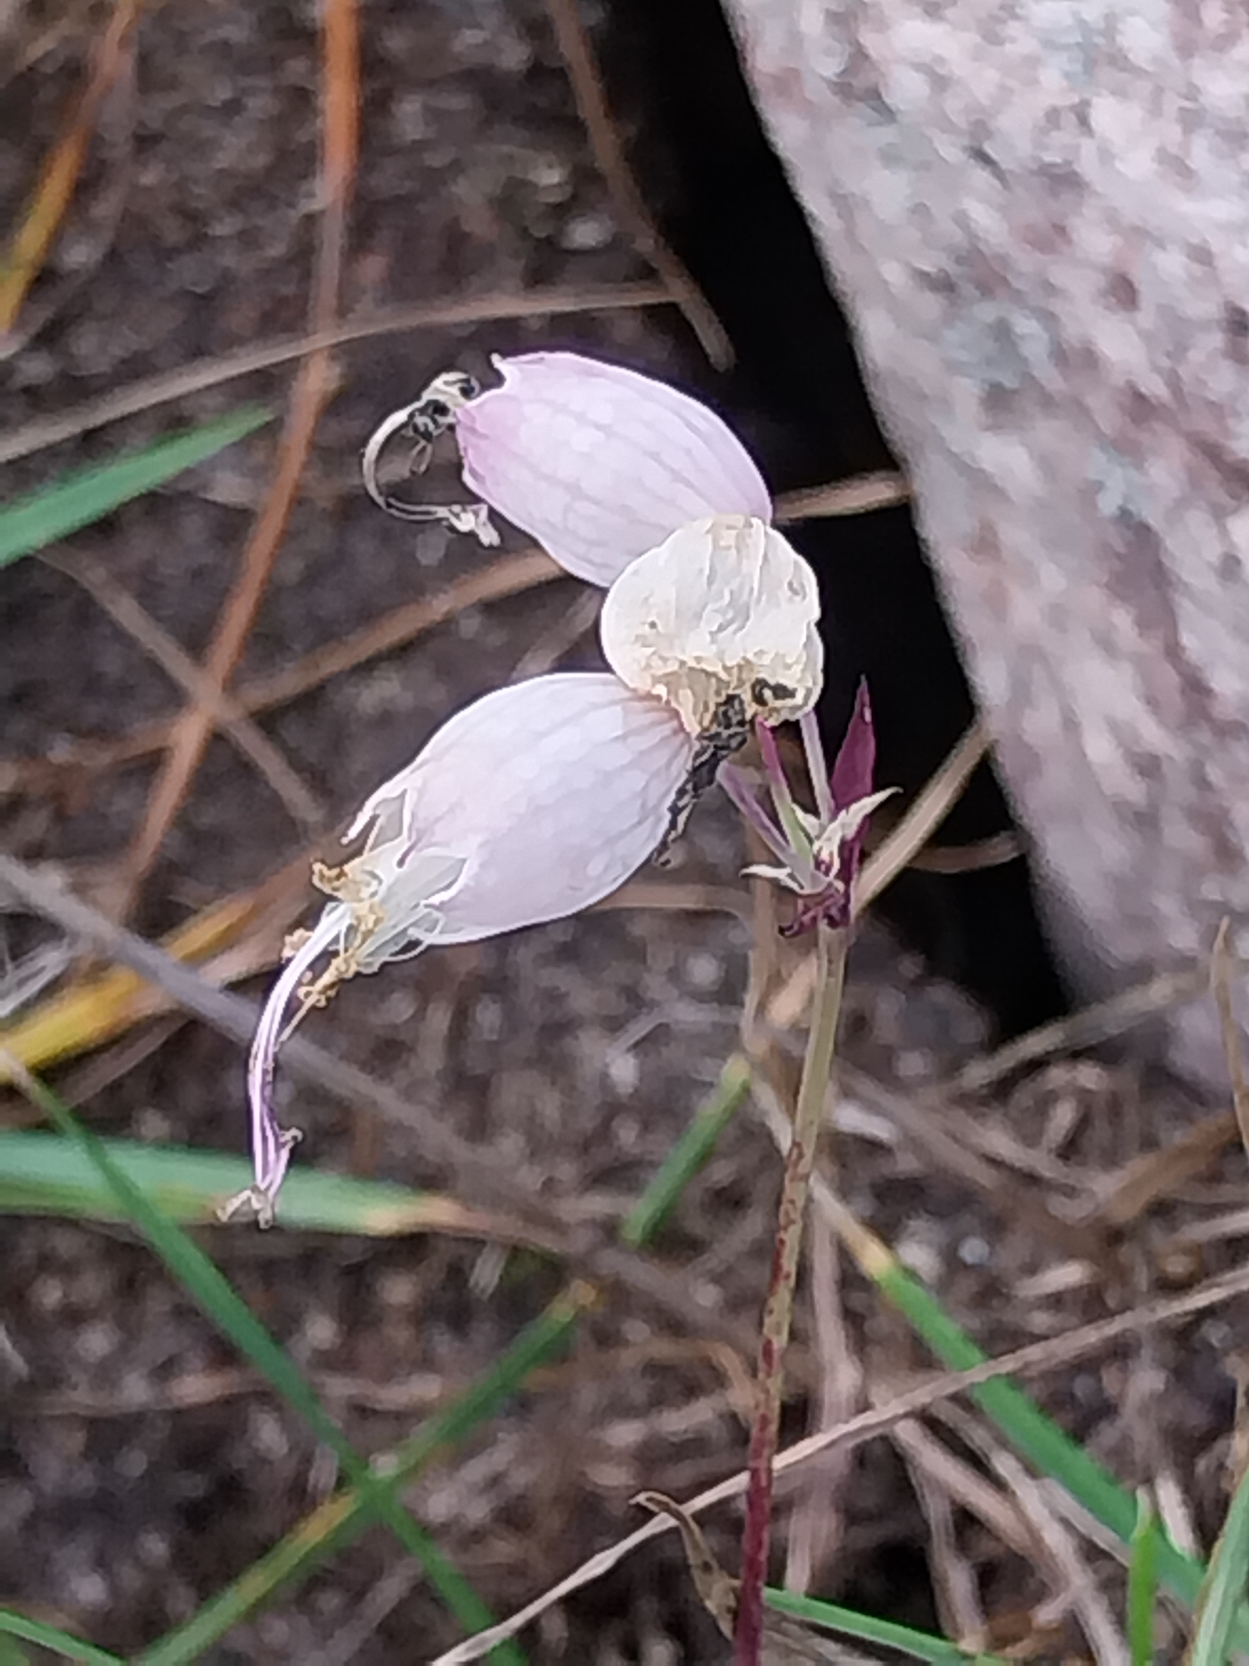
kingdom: Plantae
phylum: Tracheophyta
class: Magnoliopsida
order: Caryophyllales
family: Caryophyllaceae
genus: Silene
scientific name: Silene vulgaris
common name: Blæresmælde
